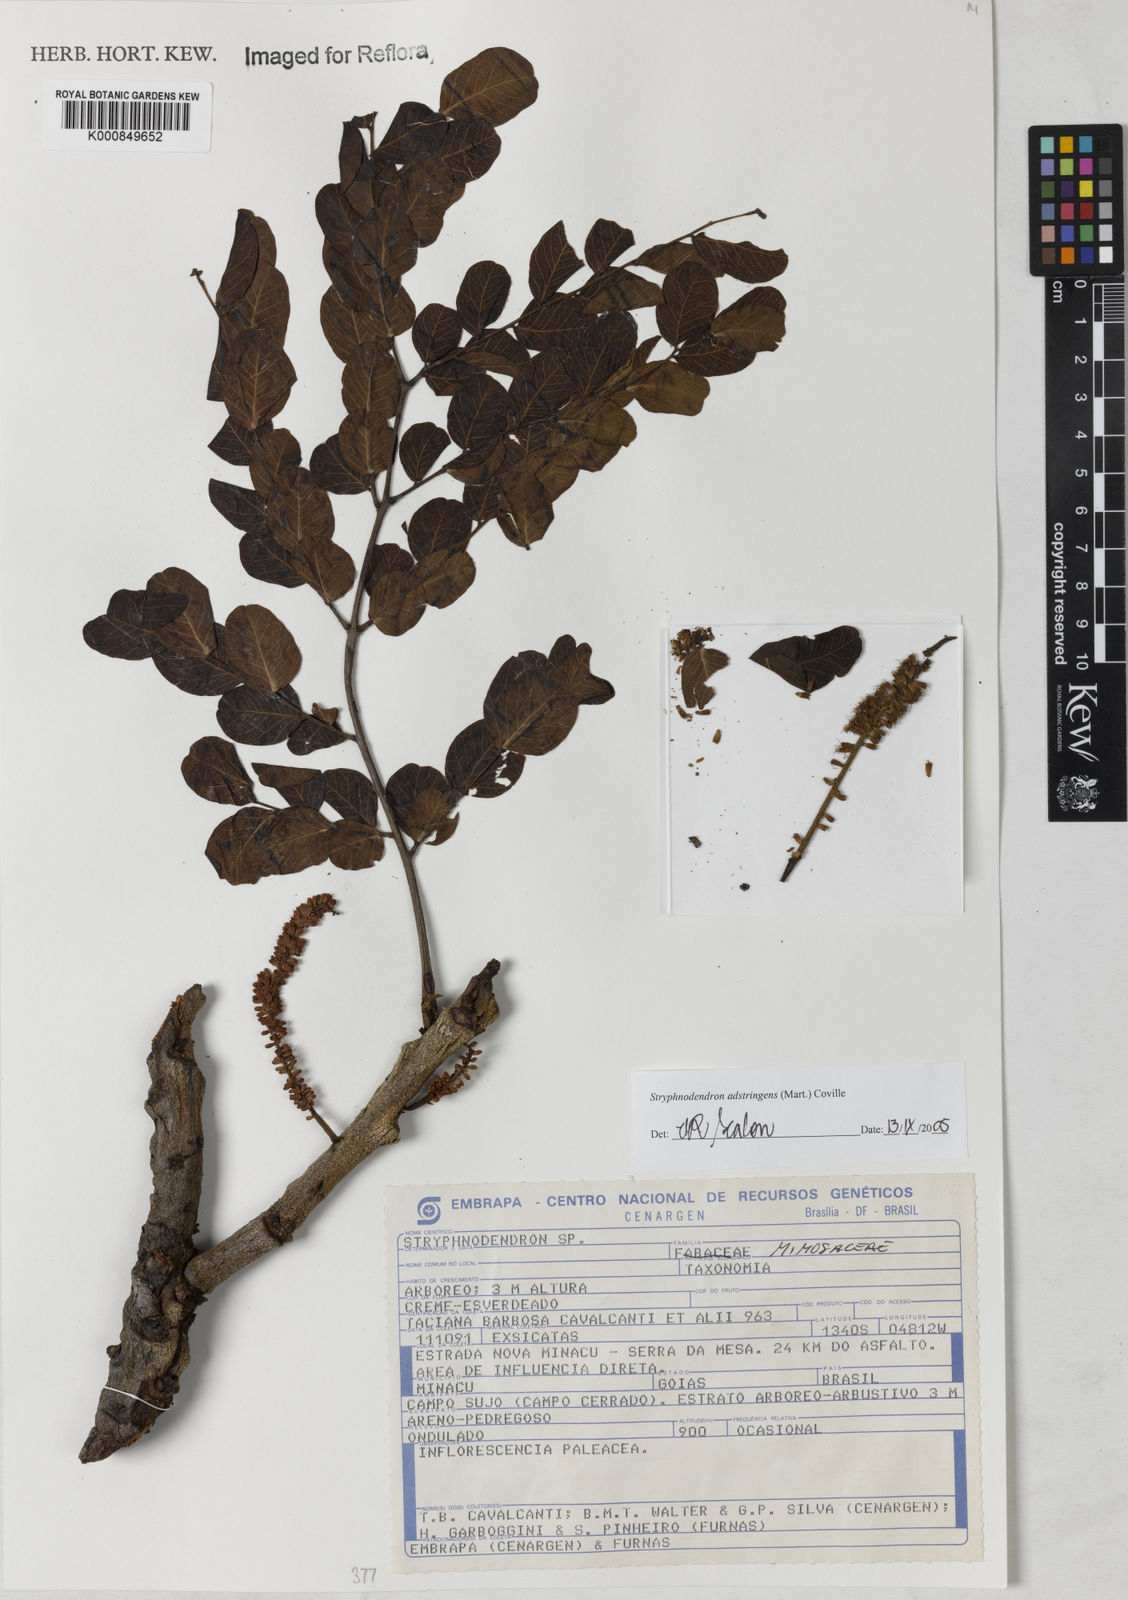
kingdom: Plantae
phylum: Tracheophyta
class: Magnoliopsida
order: Fabales
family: Fabaceae
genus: Stryphnodendron
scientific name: Stryphnodendron adstringens
